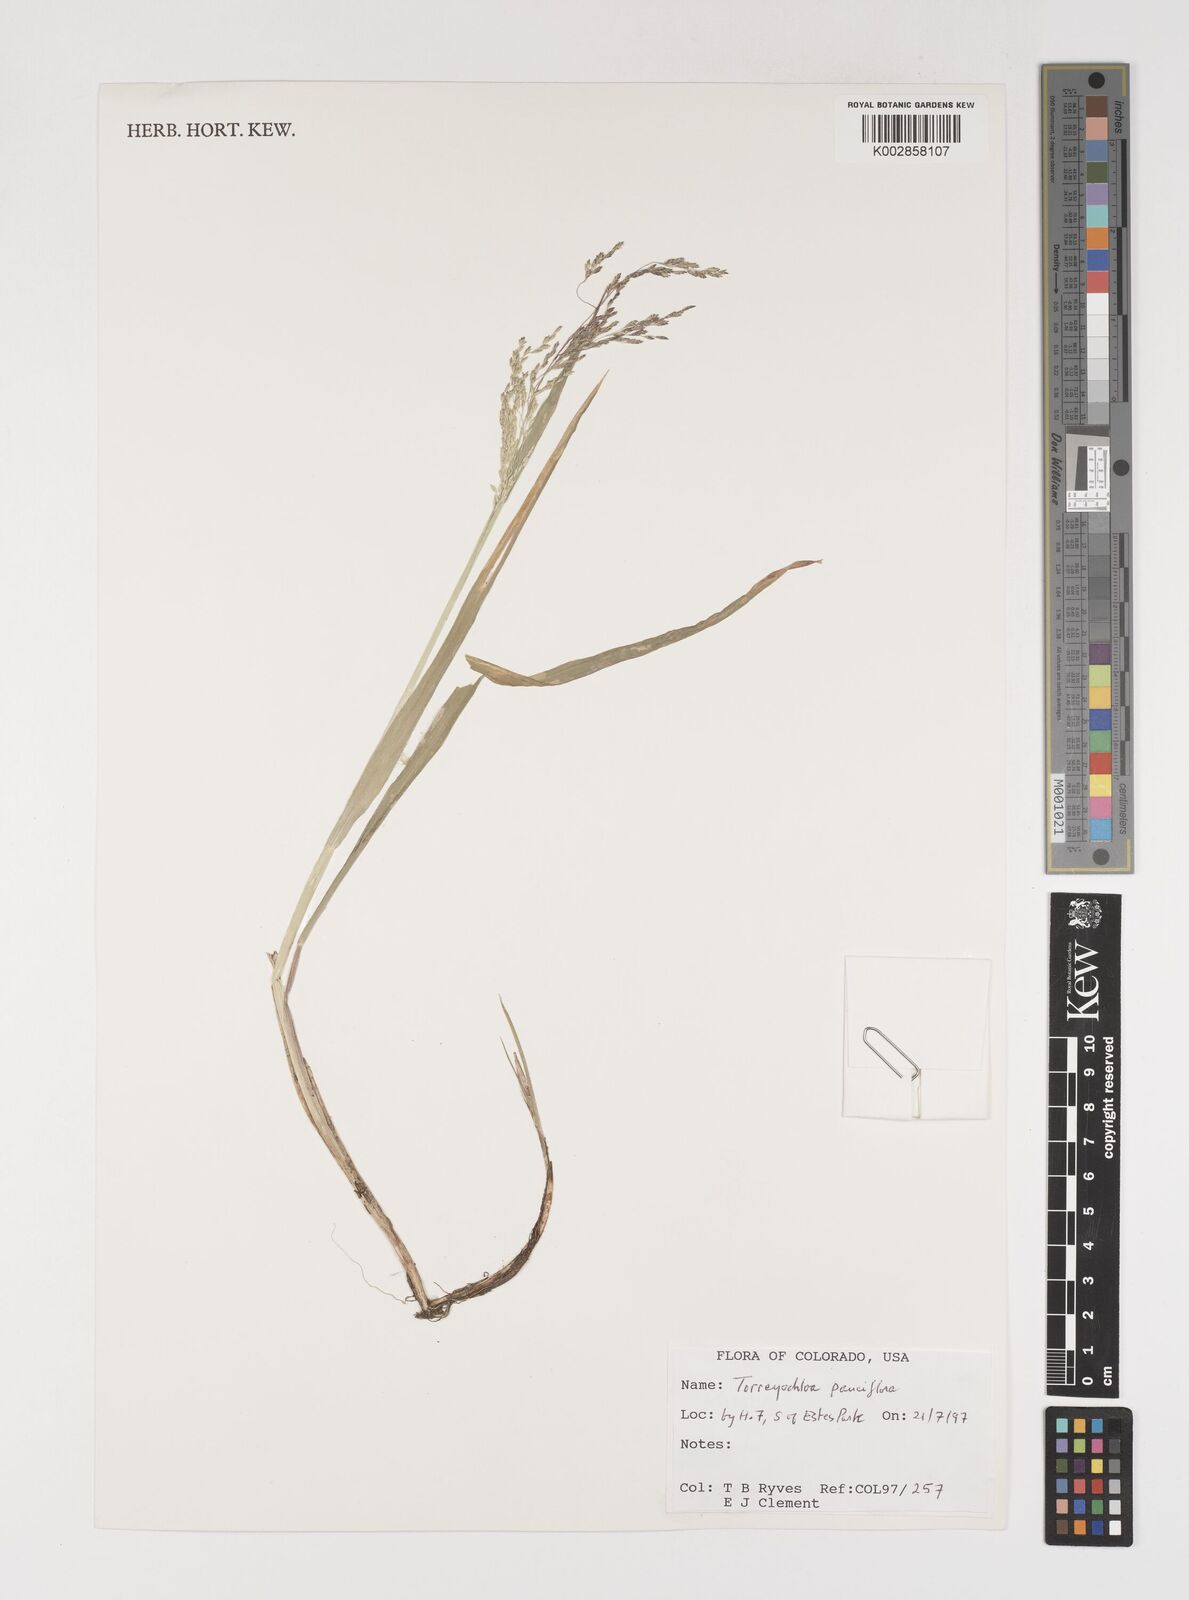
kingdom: Plantae
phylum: Tracheophyta
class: Liliopsida
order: Poales
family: Poaceae
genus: Torreyochloa
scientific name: Torreyochloa pallida
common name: Pale false mannagrass
